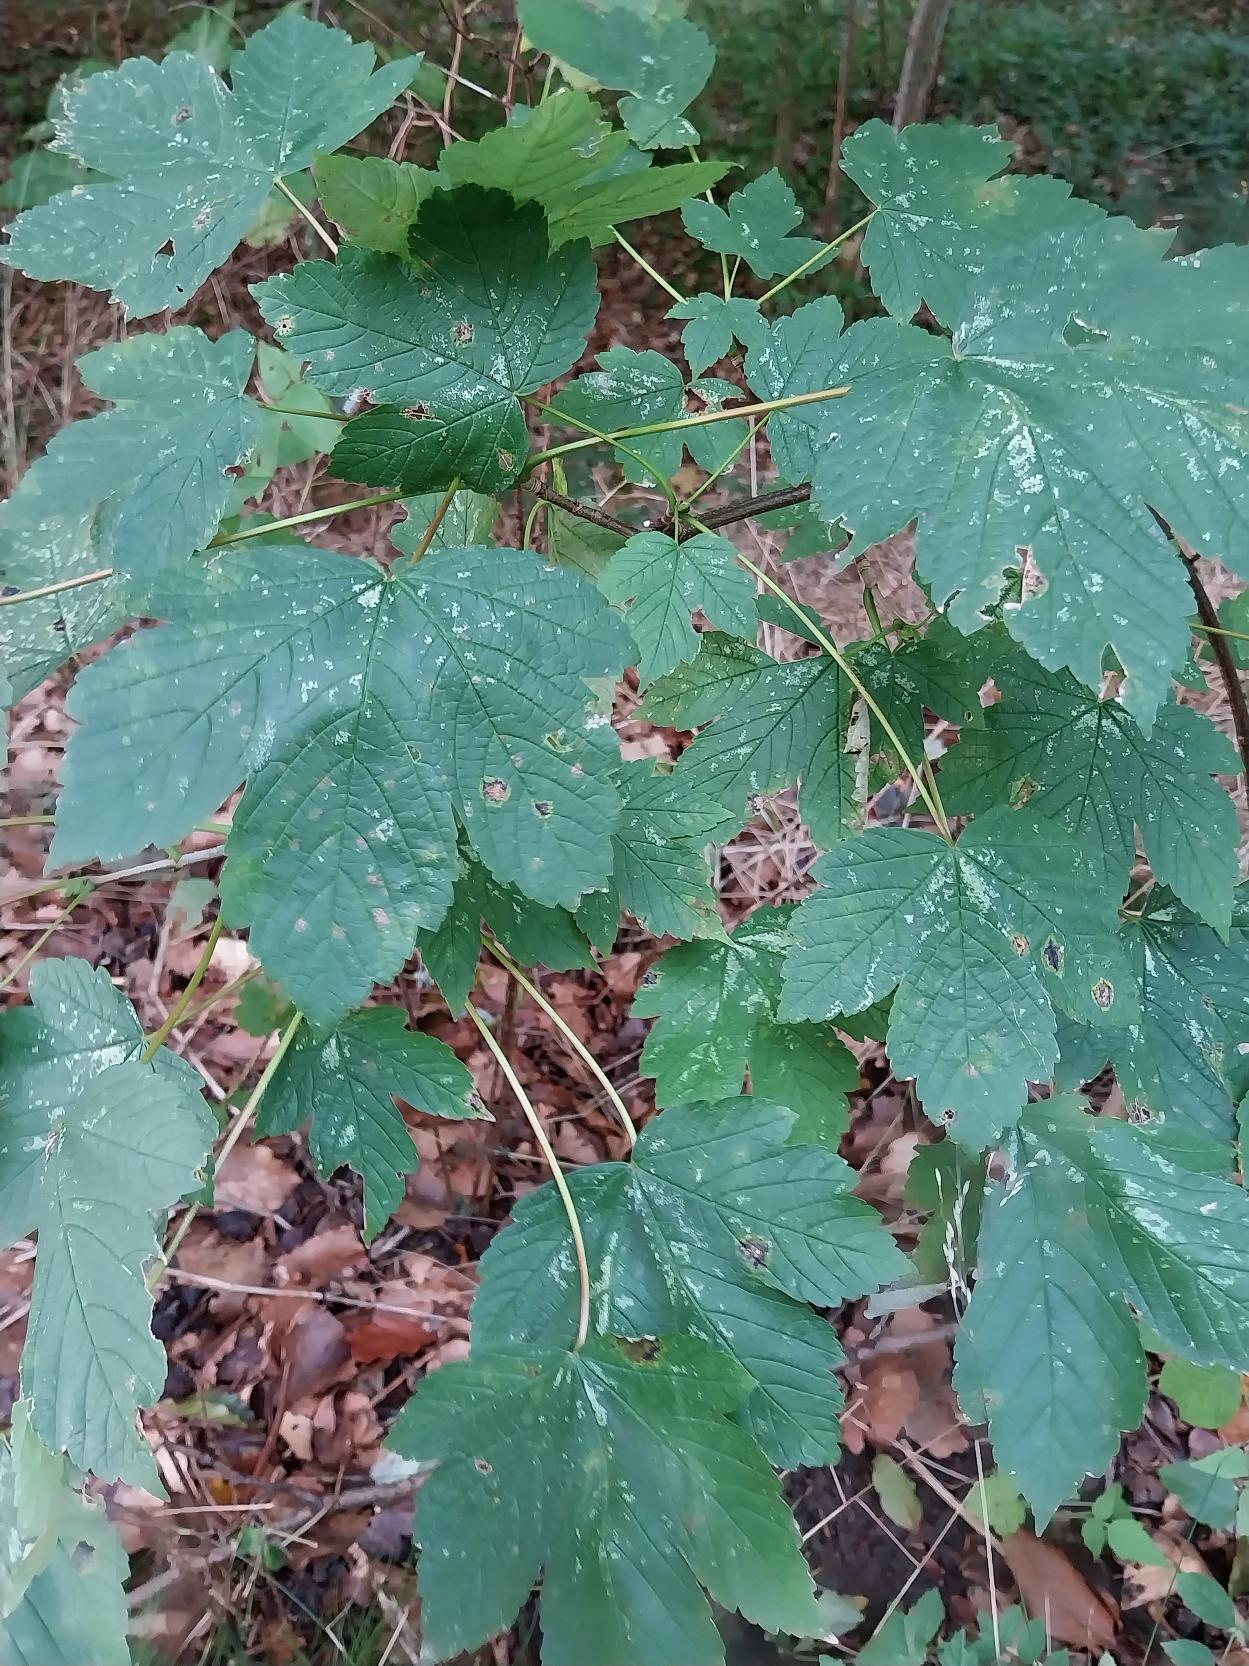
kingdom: Plantae
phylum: Tracheophyta
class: Magnoliopsida
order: Sapindales
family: Sapindaceae
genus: Acer
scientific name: Acer pseudoplatanus
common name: Ahorn
